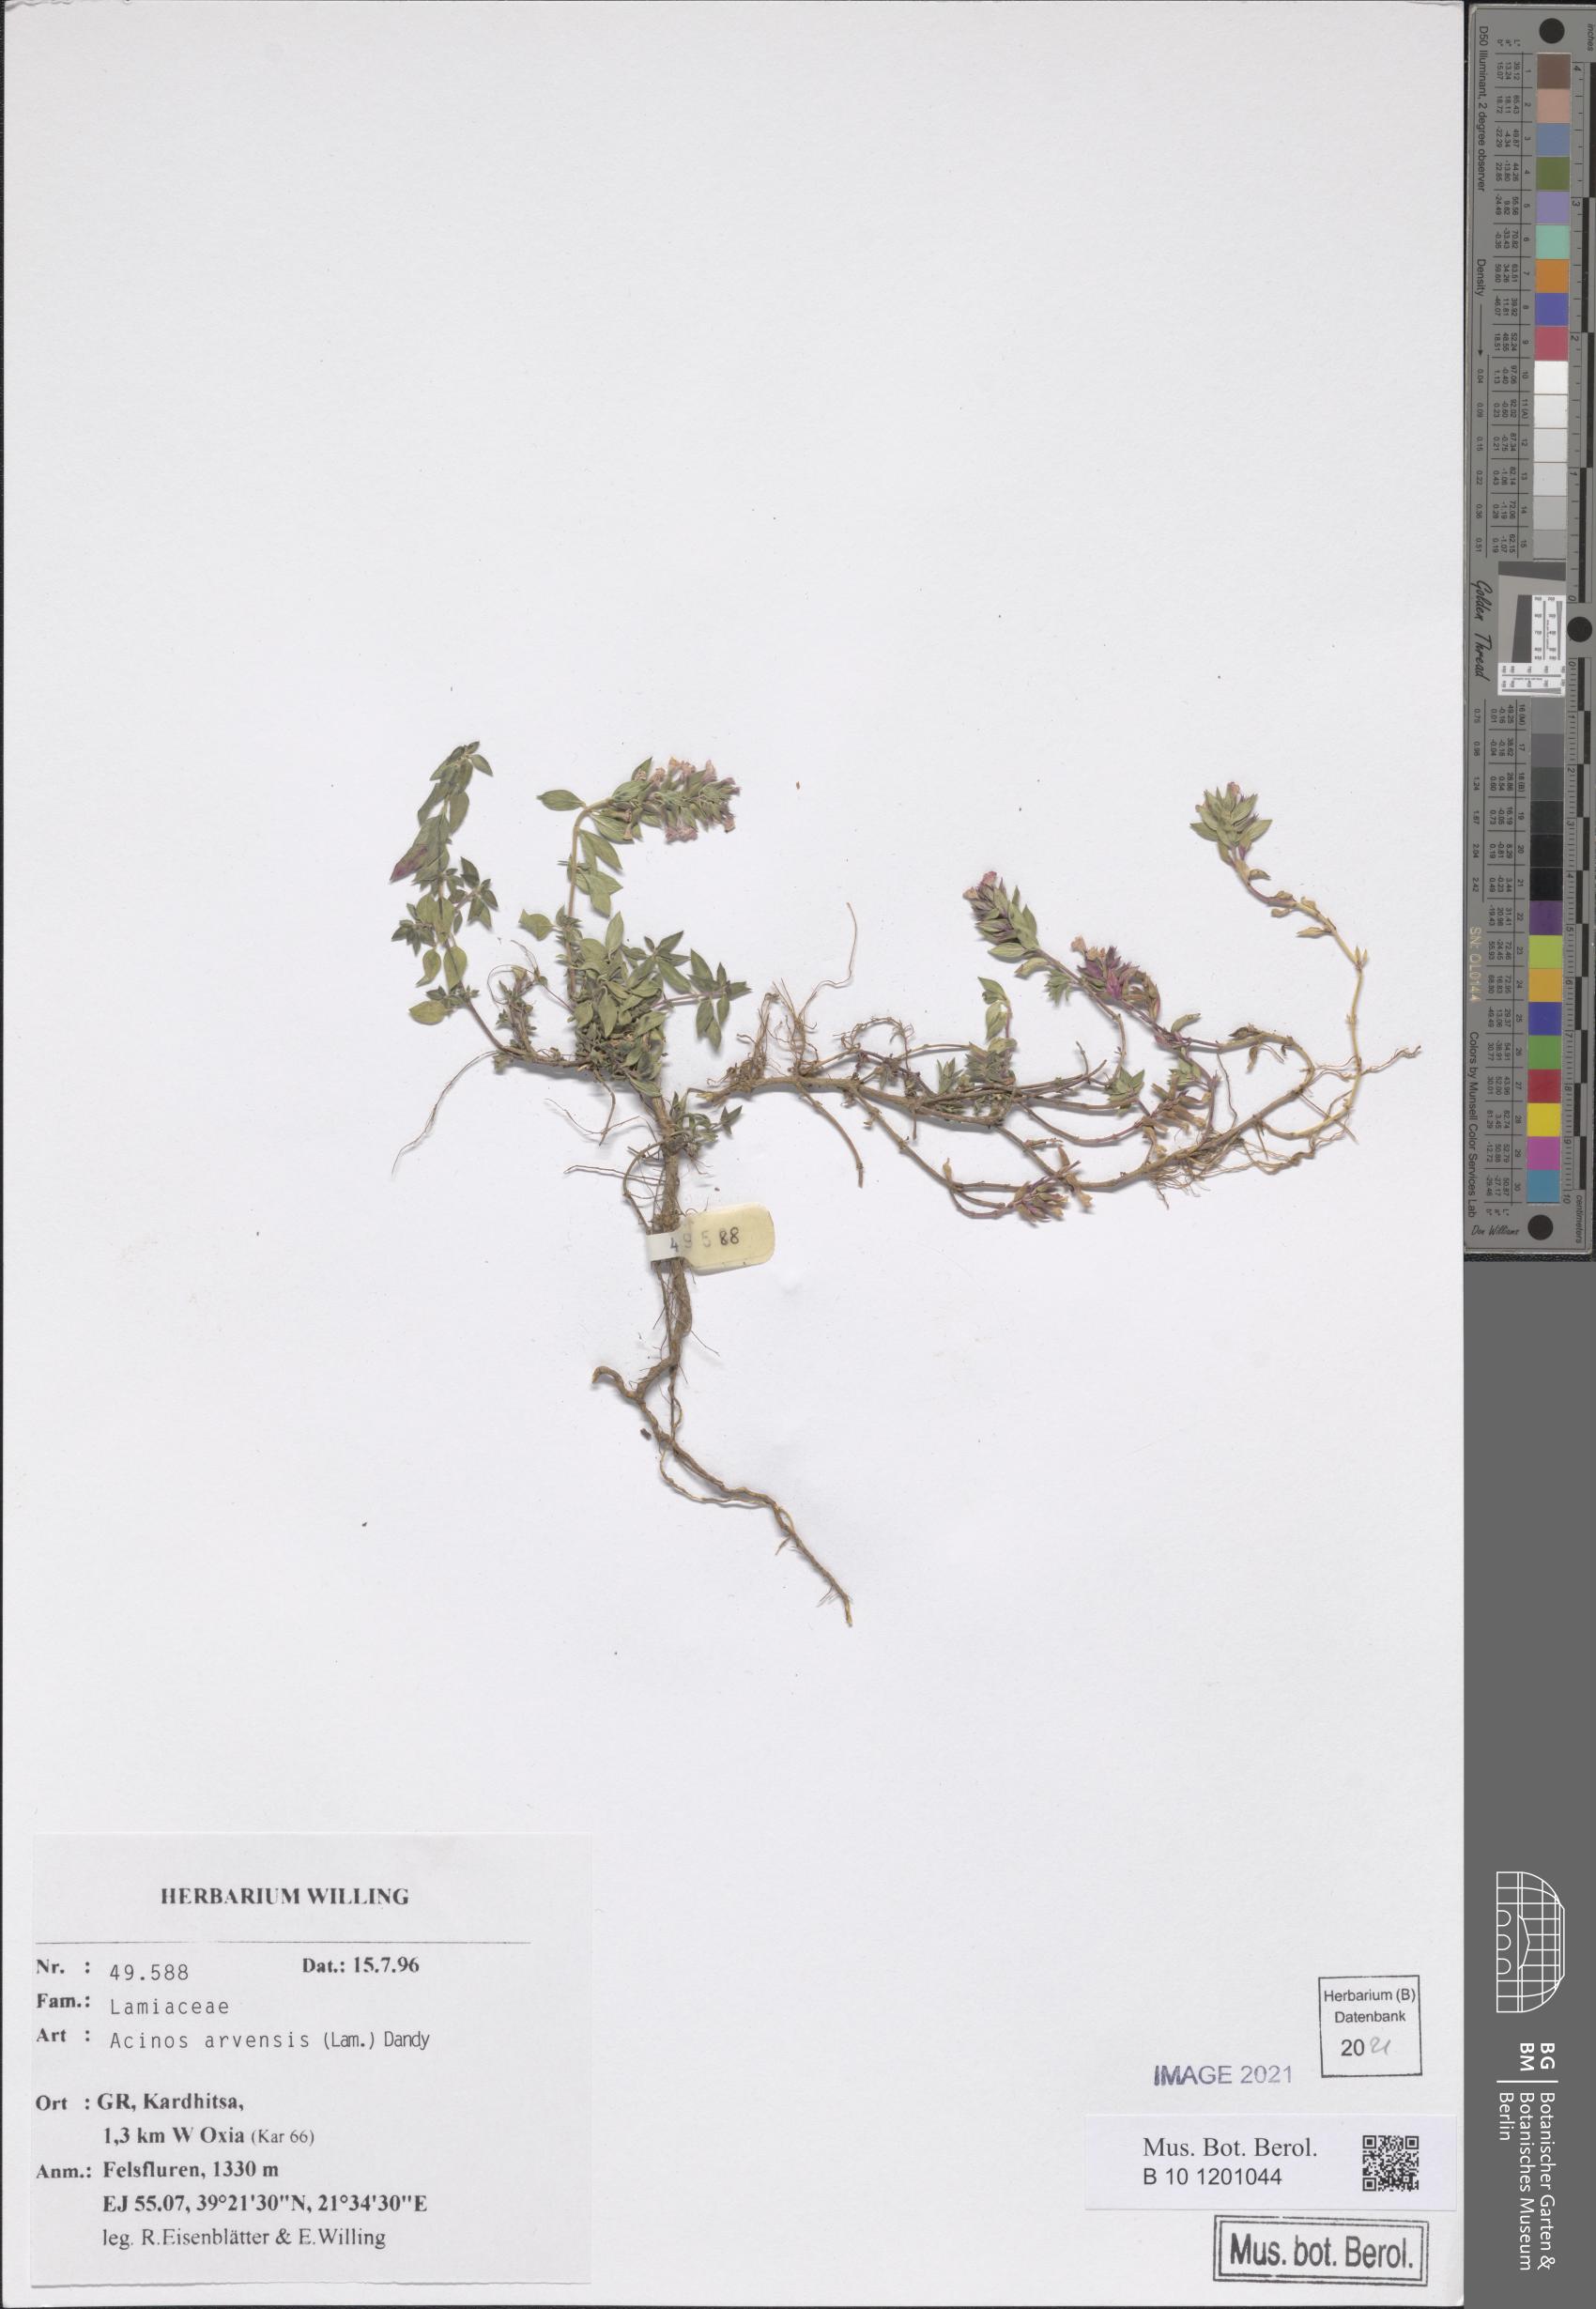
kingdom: Plantae
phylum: Tracheophyta
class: Magnoliopsida
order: Lamiales
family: Lamiaceae
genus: Clinopodium
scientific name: Clinopodium acinos
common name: Basil thyme
